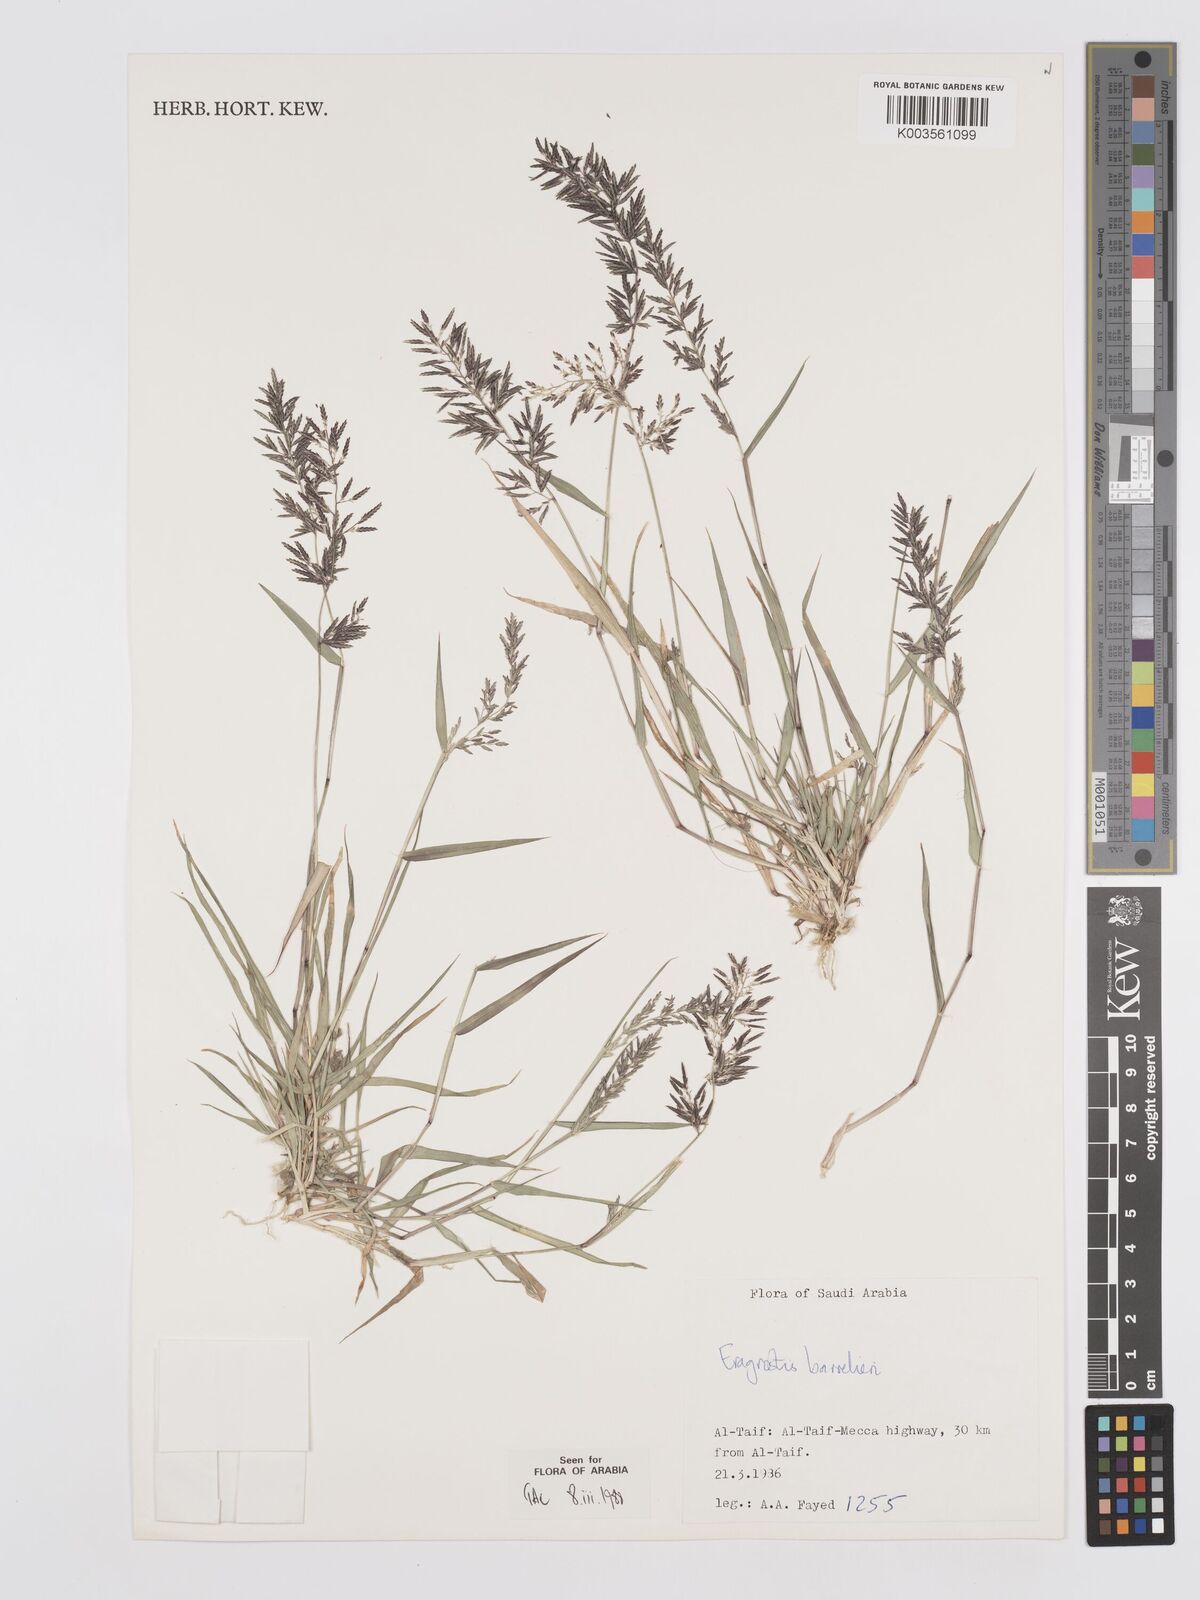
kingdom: Plantae
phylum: Tracheophyta
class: Liliopsida
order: Poales
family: Poaceae
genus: Eragrostis
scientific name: Eragrostis barrelieri
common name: Mediterranean lovegrass
